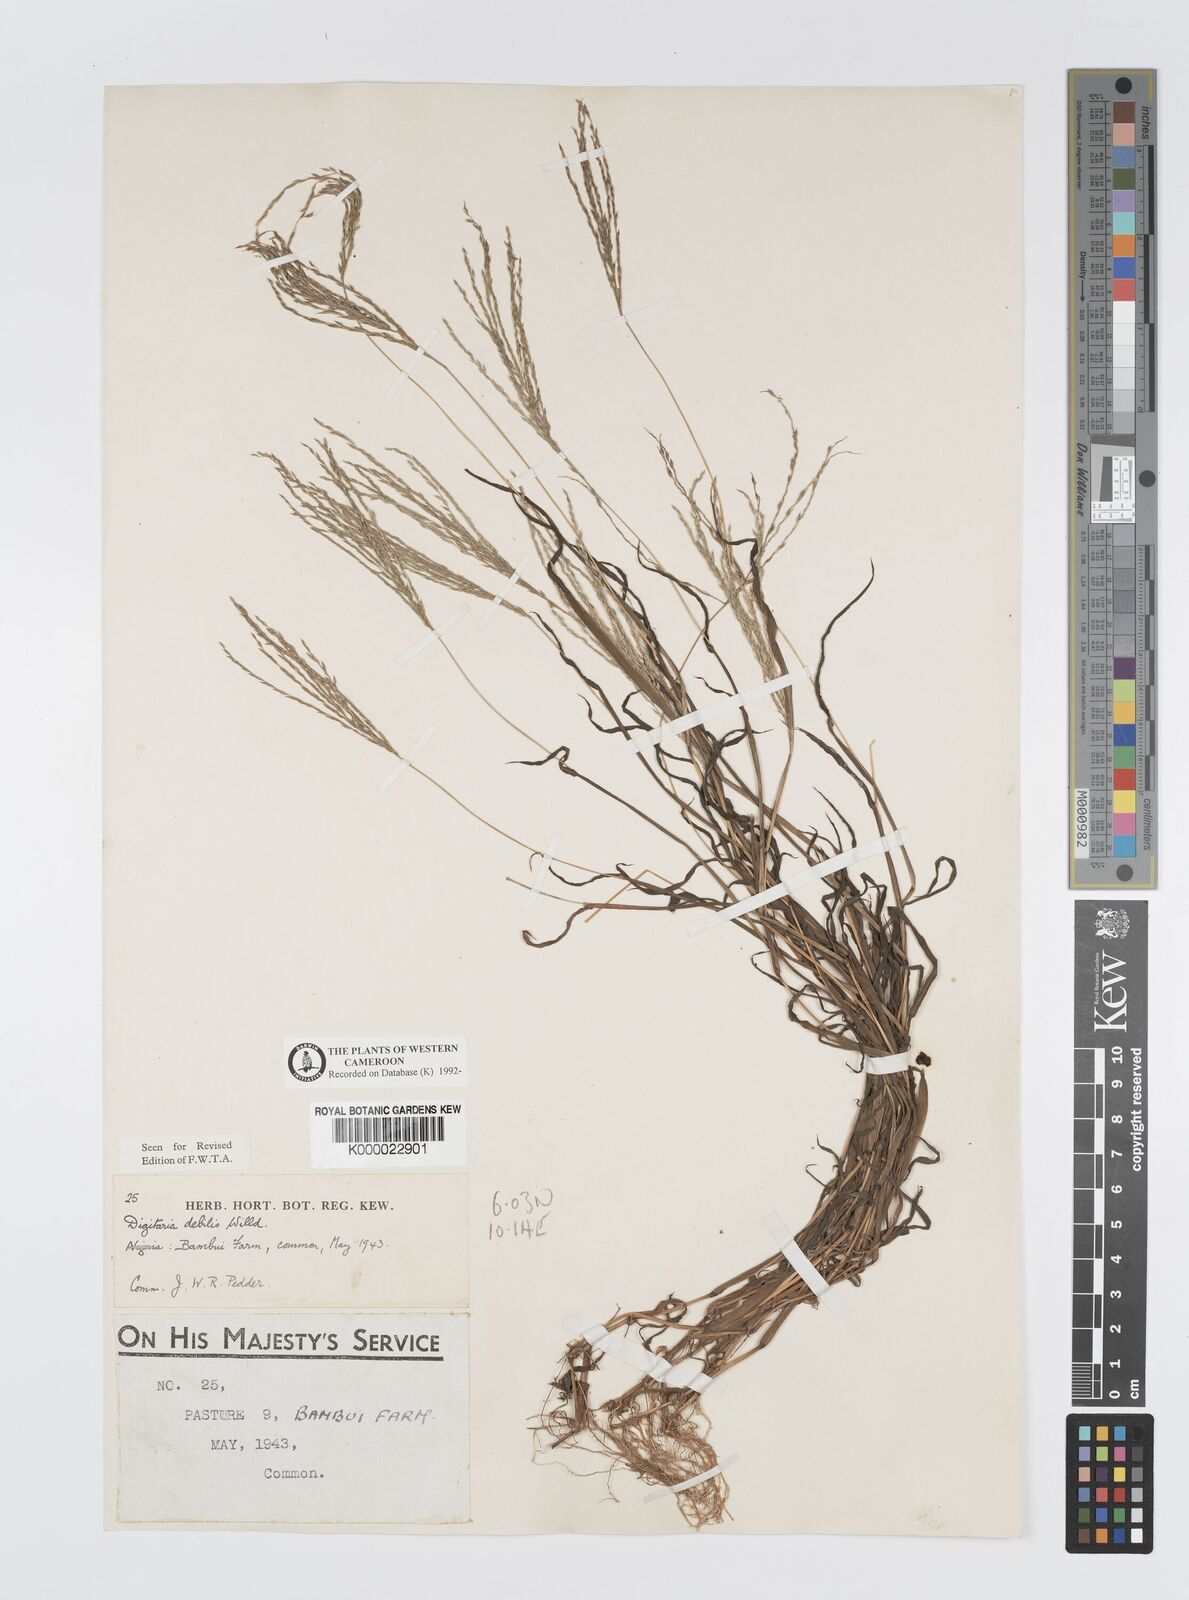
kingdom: Plantae
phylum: Tracheophyta
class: Liliopsida
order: Poales
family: Poaceae
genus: Digitaria
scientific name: Digitaria debilis
